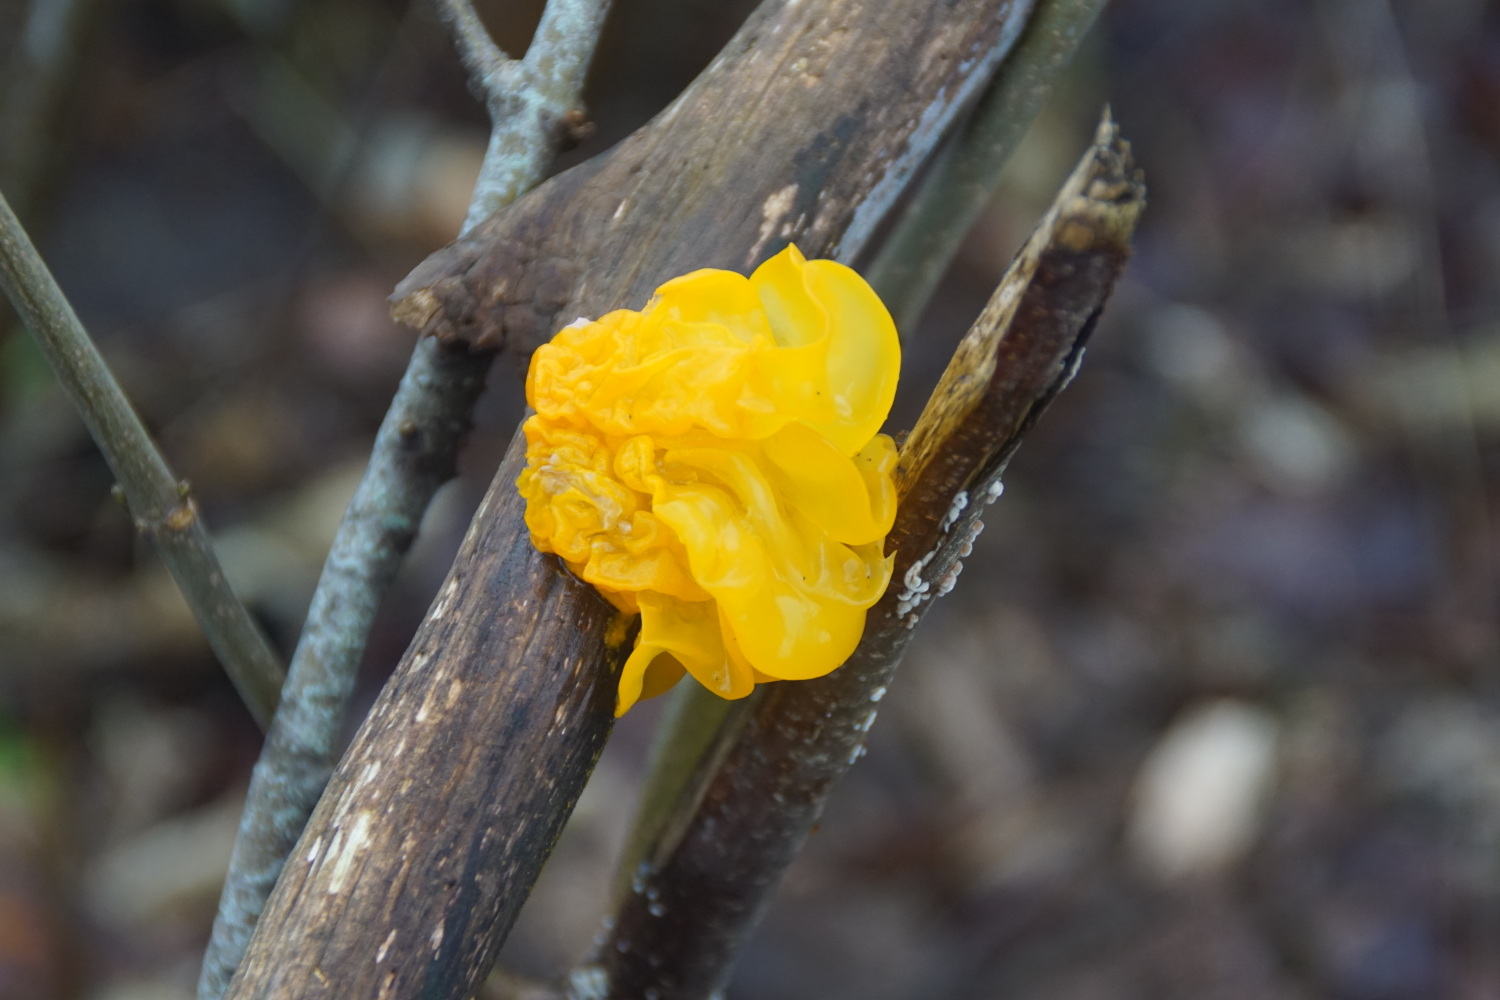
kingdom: Fungi
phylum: Basidiomycota
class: Tremellomycetes
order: Tremellales
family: Tremellaceae
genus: Tremella
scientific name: Tremella mesenterica
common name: gul bævresvamp
